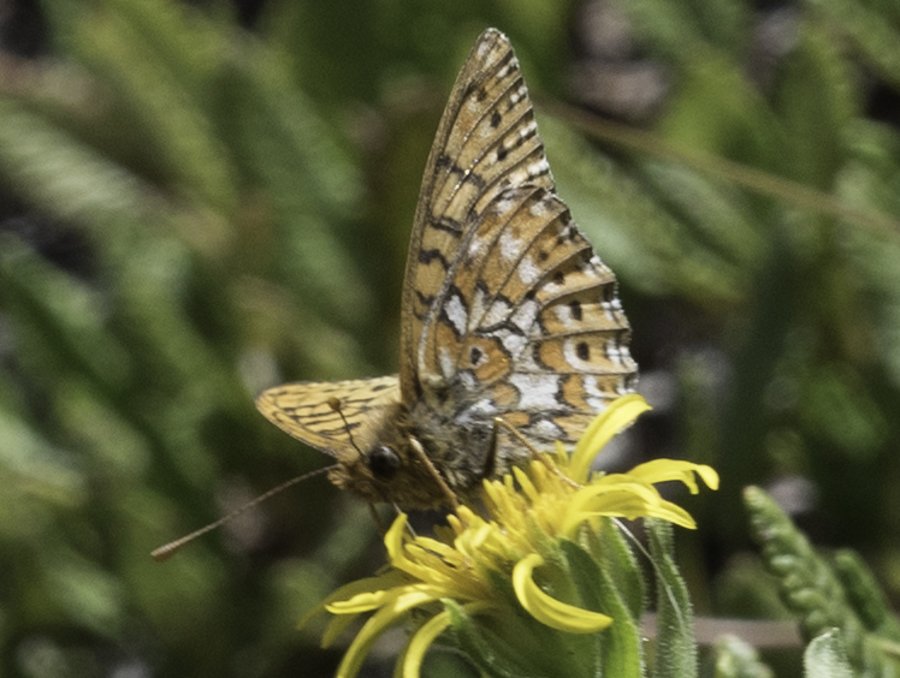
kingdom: Animalia
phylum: Arthropoda
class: Insecta
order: Lepidoptera
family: Nymphalidae
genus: Clossiana
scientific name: Clossiana astarte
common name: Astarte Fritillary
